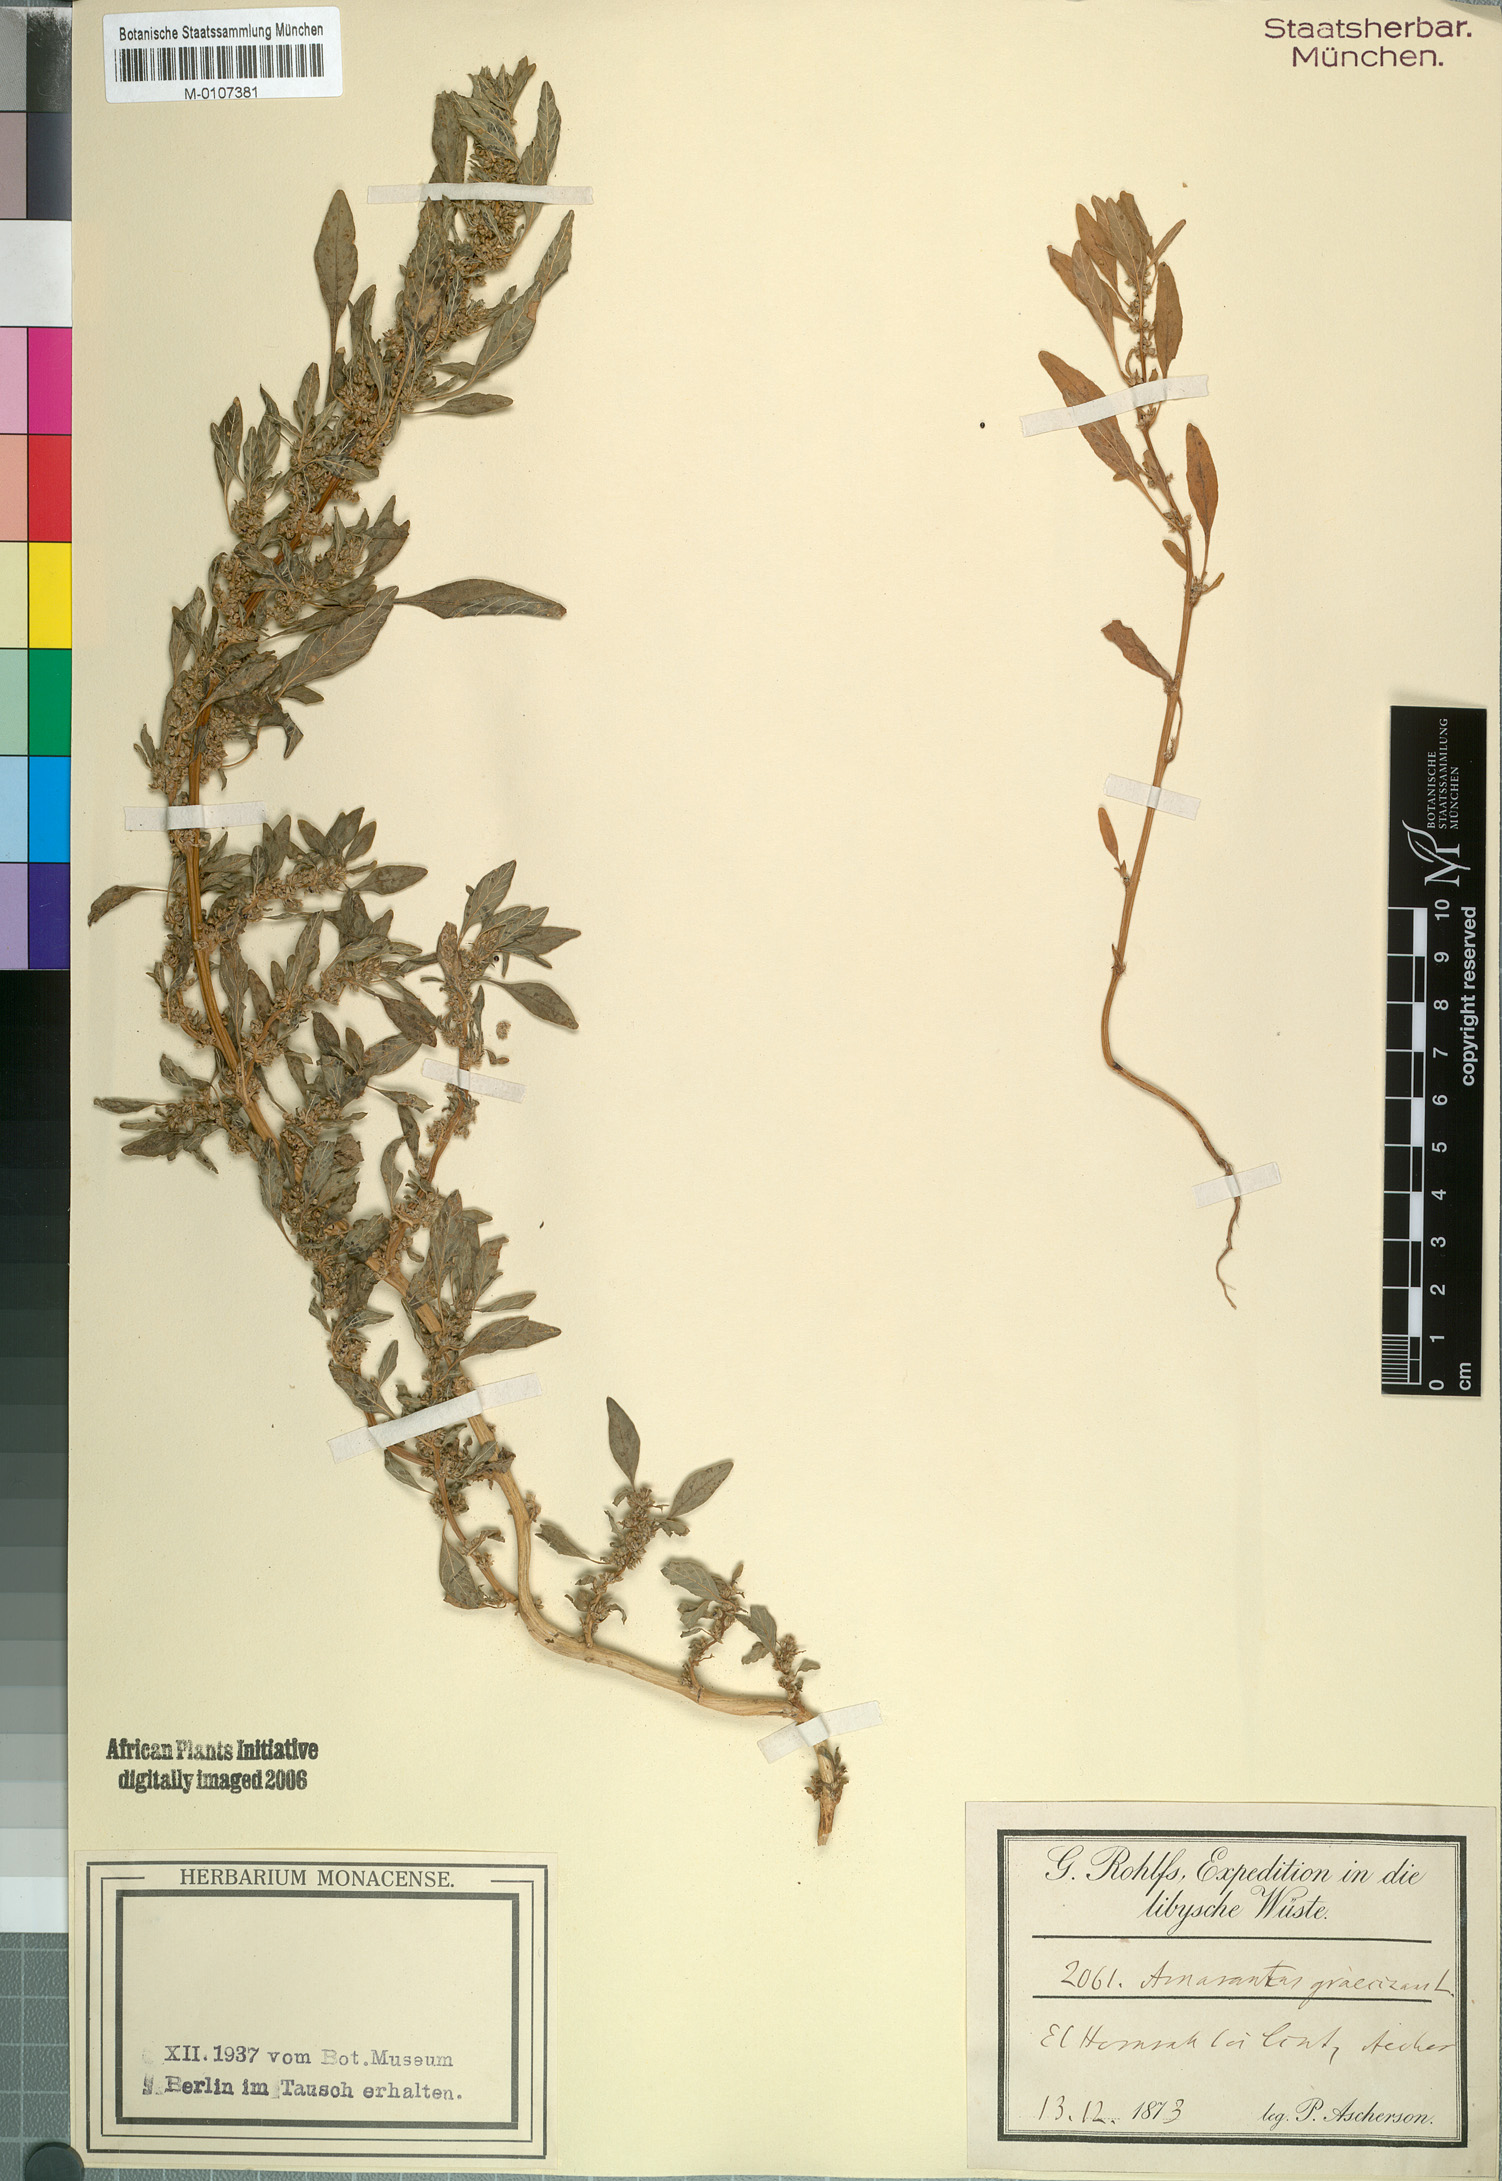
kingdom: Plantae
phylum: Tracheophyta
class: Magnoliopsida
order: Caryophyllales
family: Amaranthaceae
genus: Amaranthus
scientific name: Amaranthus graecizans
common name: Mediterranean amaranth
